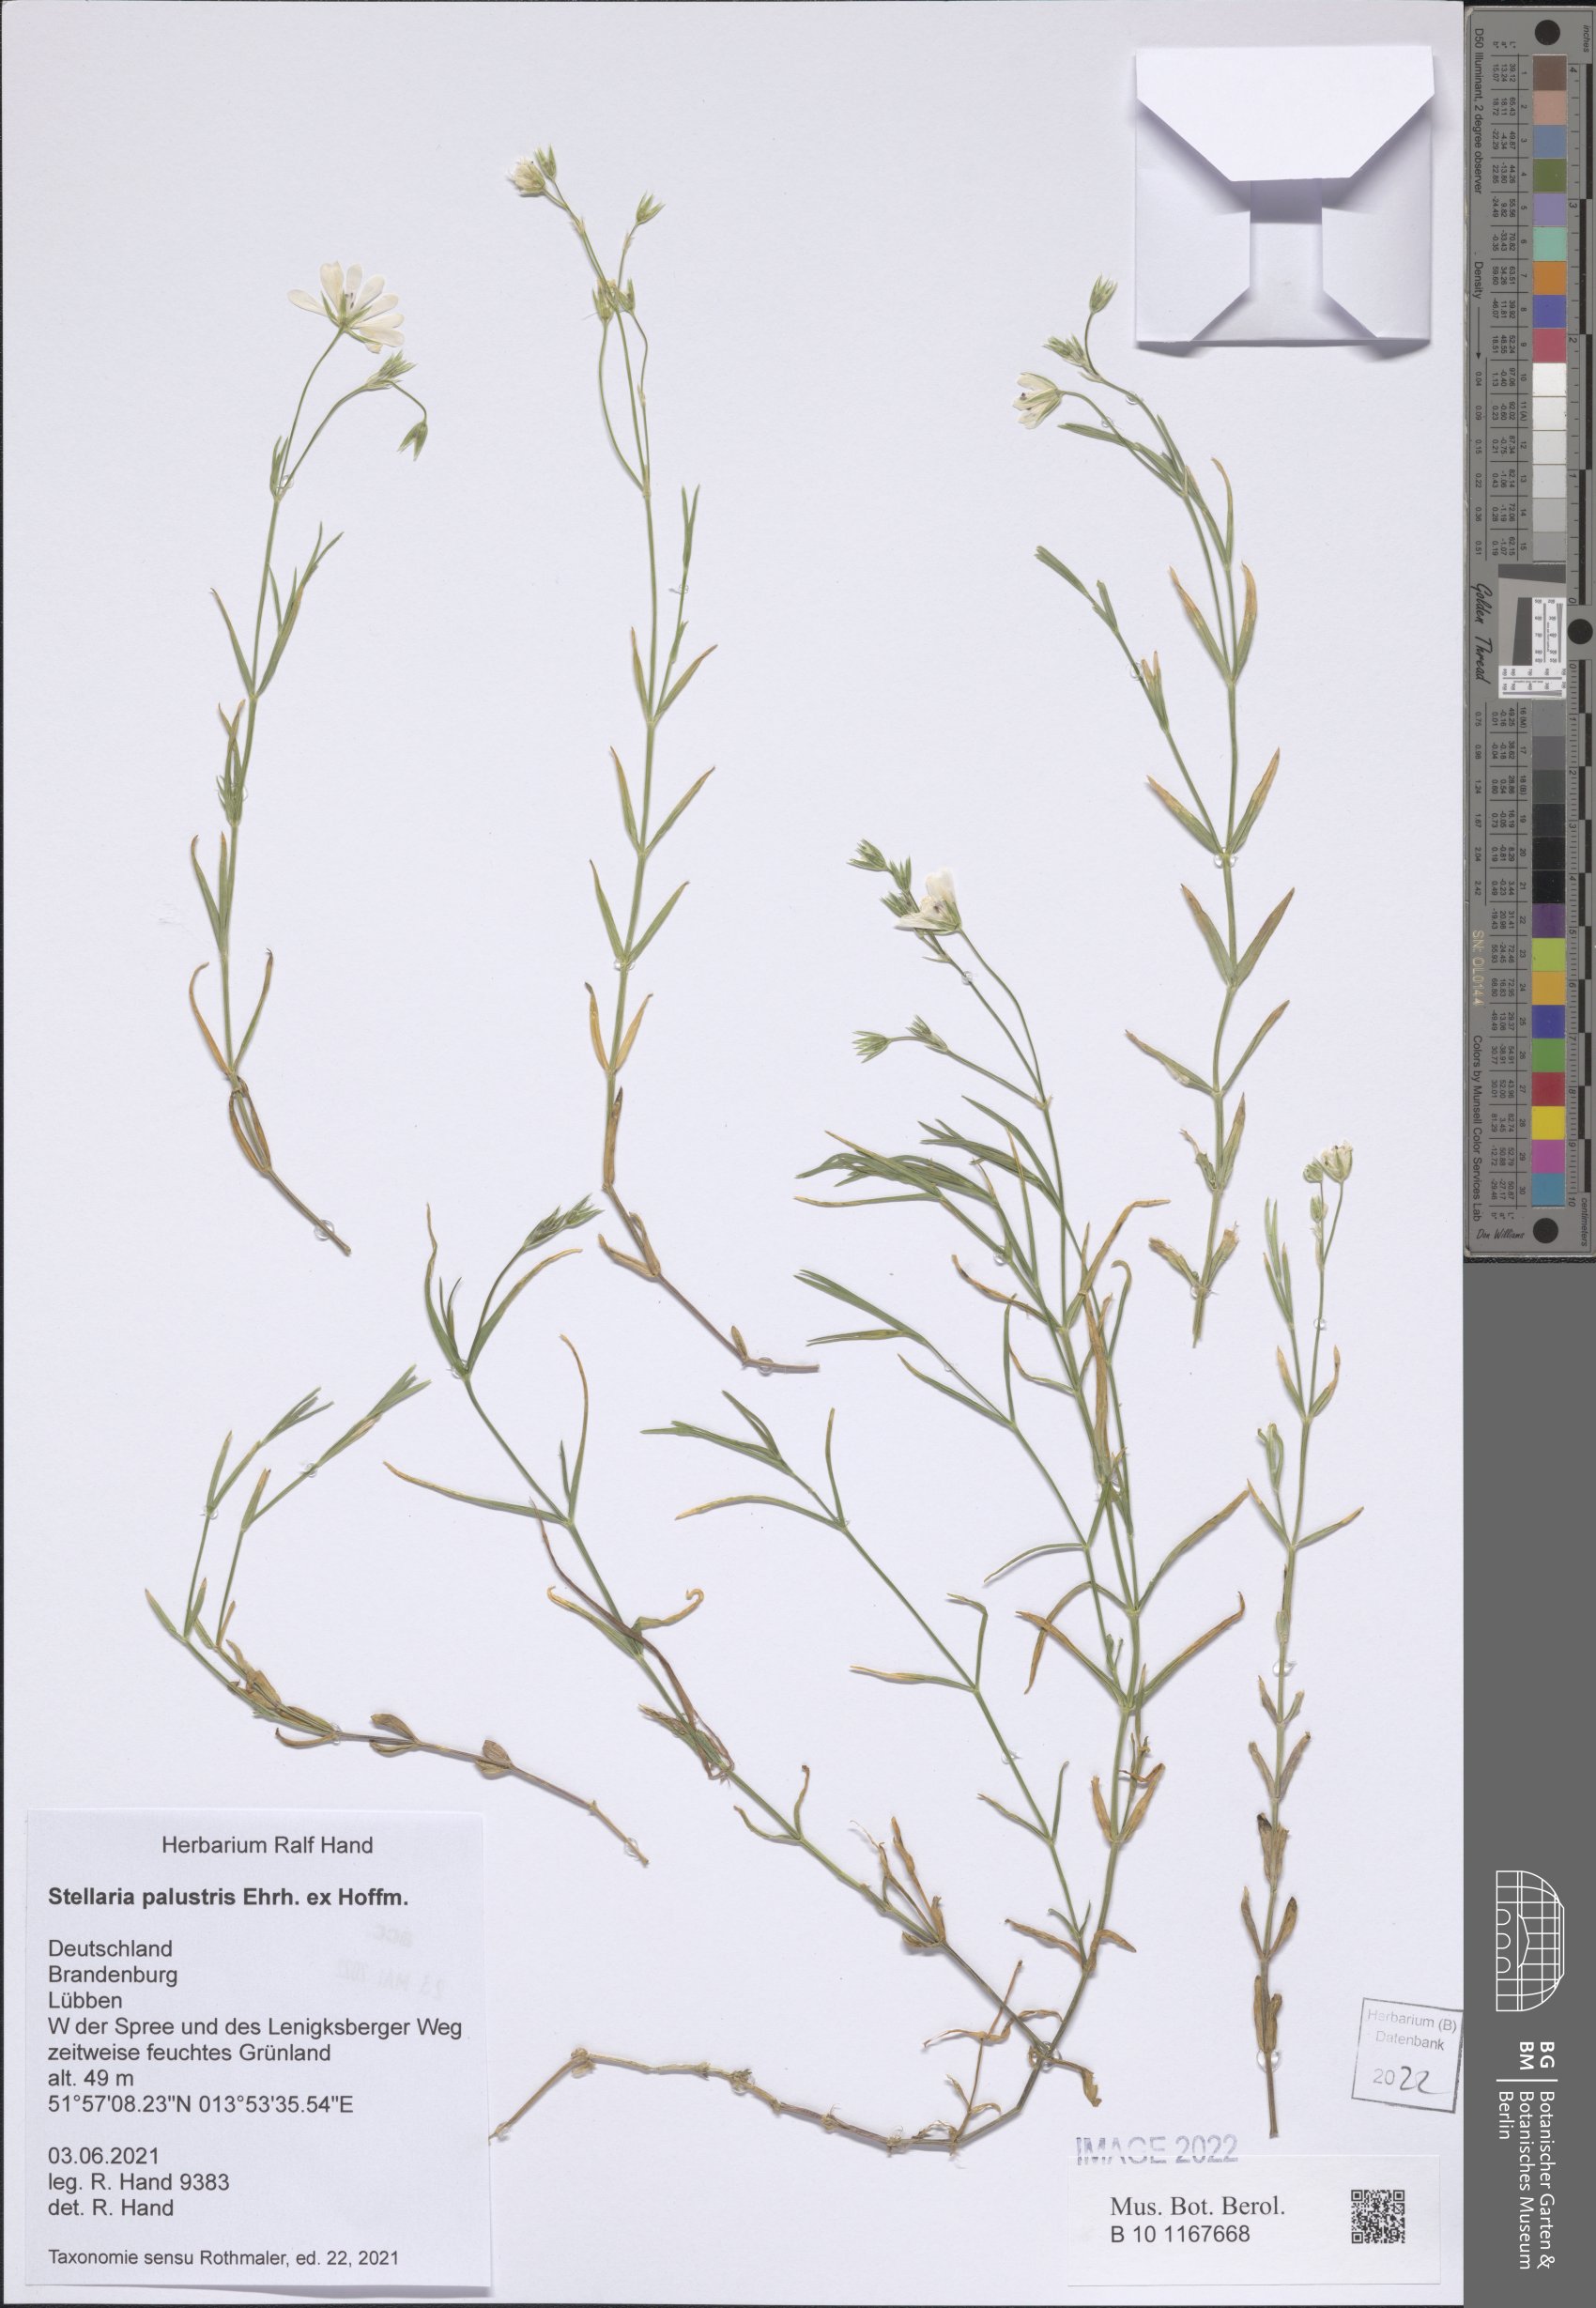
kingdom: Plantae
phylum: Tracheophyta
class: Magnoliopsida
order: Caryophyllales
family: Caryophyllaceae
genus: Stellaria
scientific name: Stellaria palustris
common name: Marsh stitchwort
